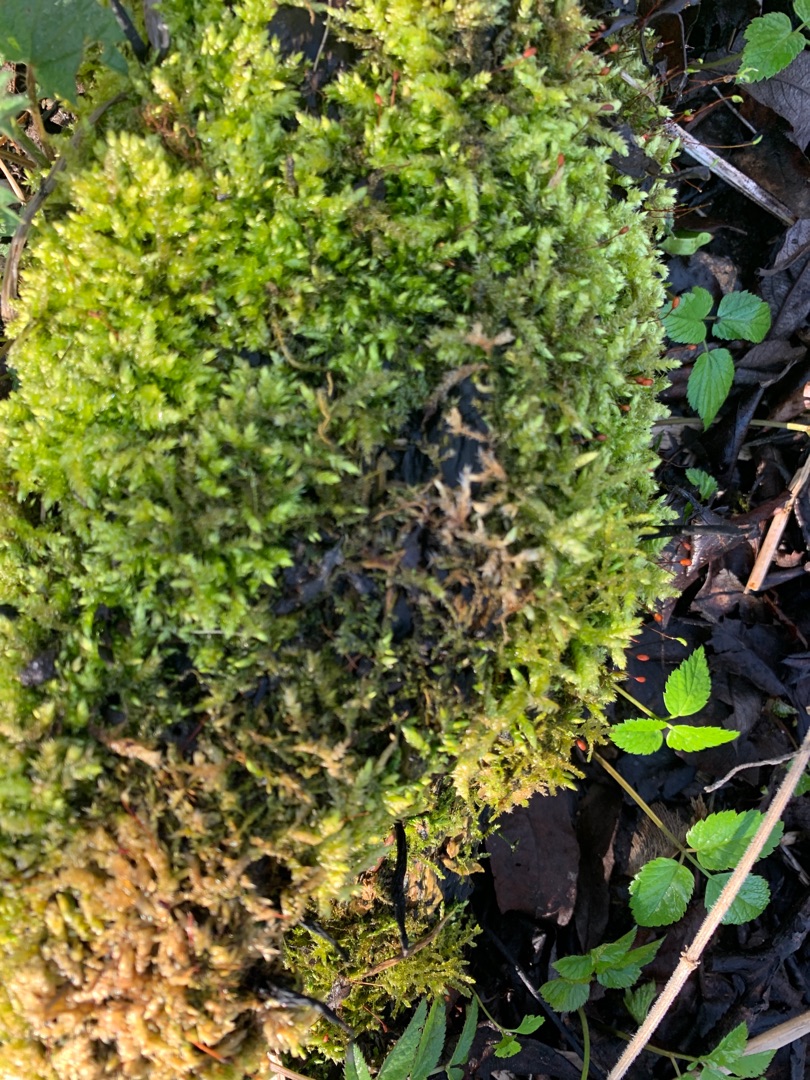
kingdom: Plantae
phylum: Bryophyta
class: Bryopsida
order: Hypnales
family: Brachytheciaceae
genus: Brachythecium
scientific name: Brachythecium rutabulum
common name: Almindelig kortkapsel
